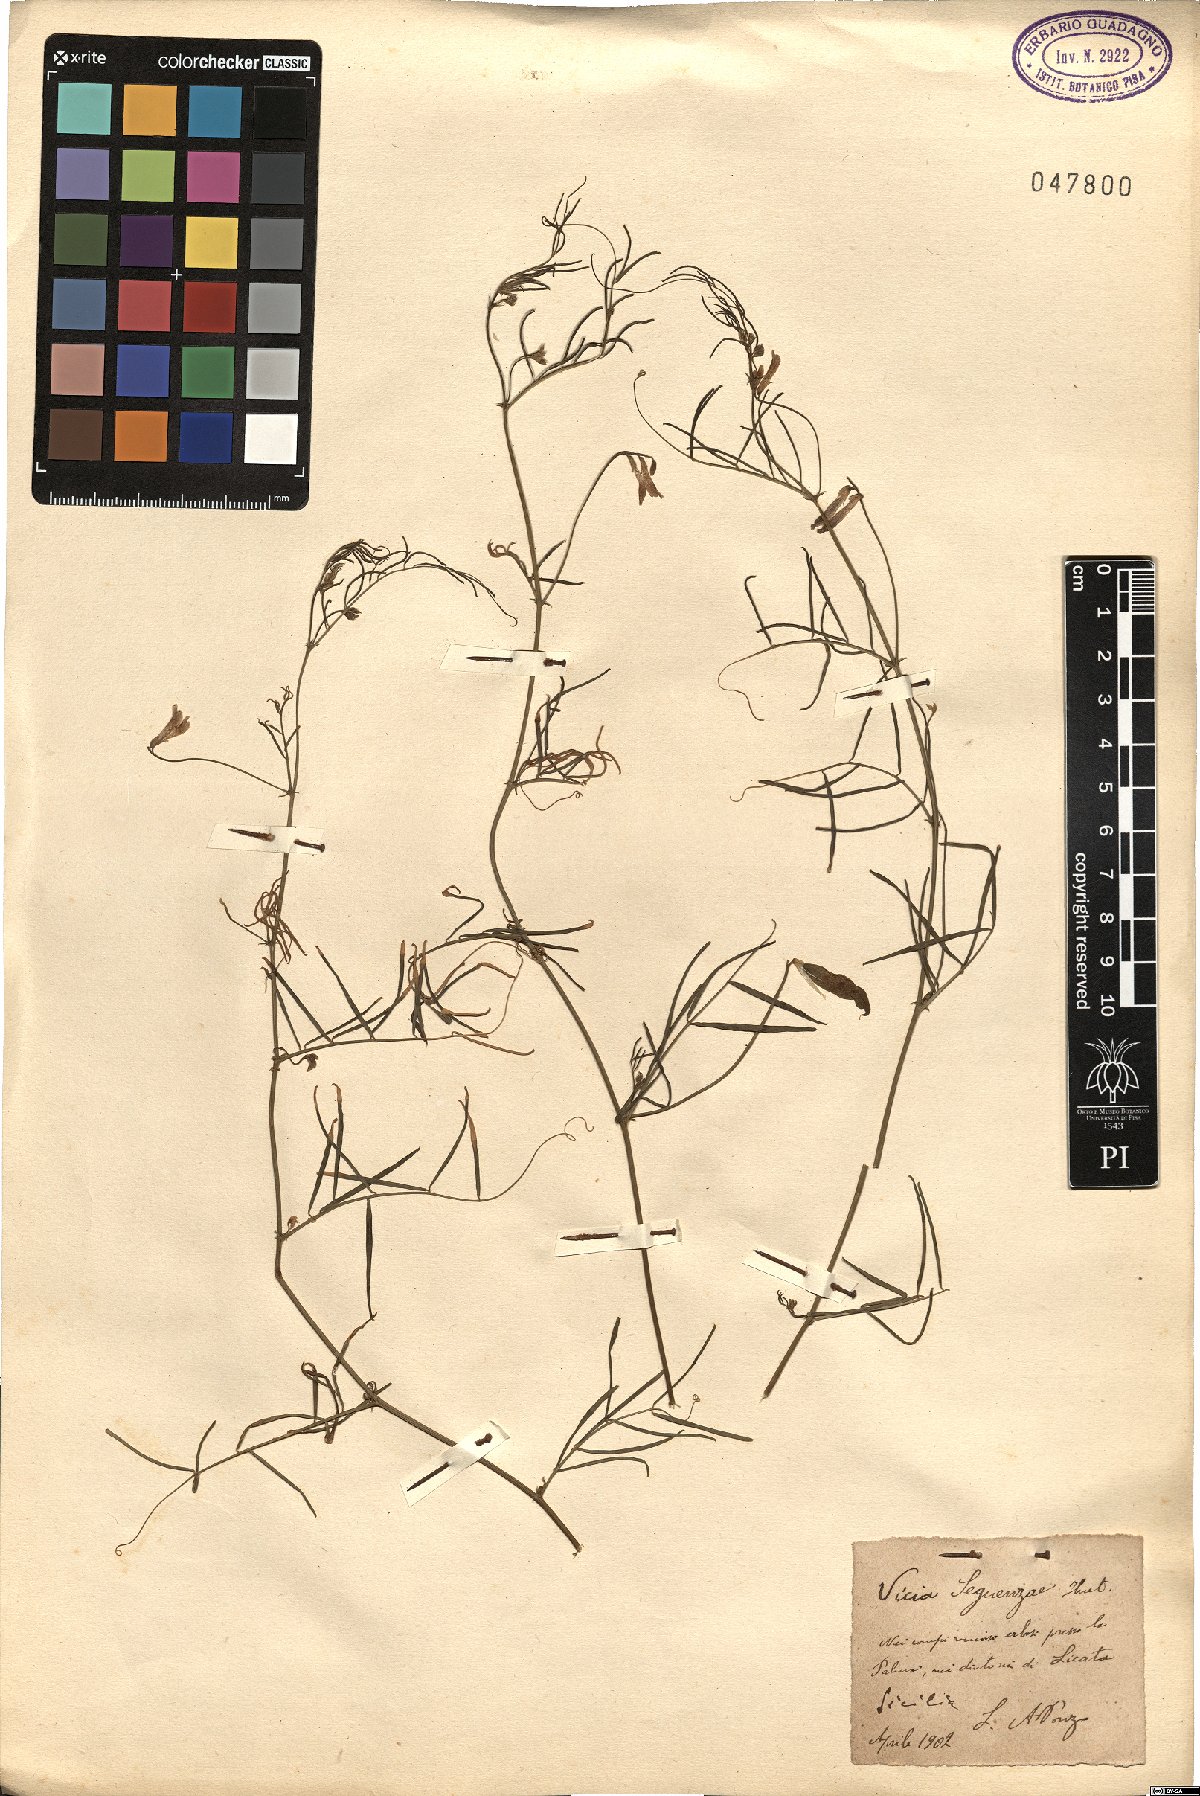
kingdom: Plantae
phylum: Tracheophyta
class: Magnoliopsida
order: Fabales
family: Fabaceae
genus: Vicia
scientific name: Vicia sicula
